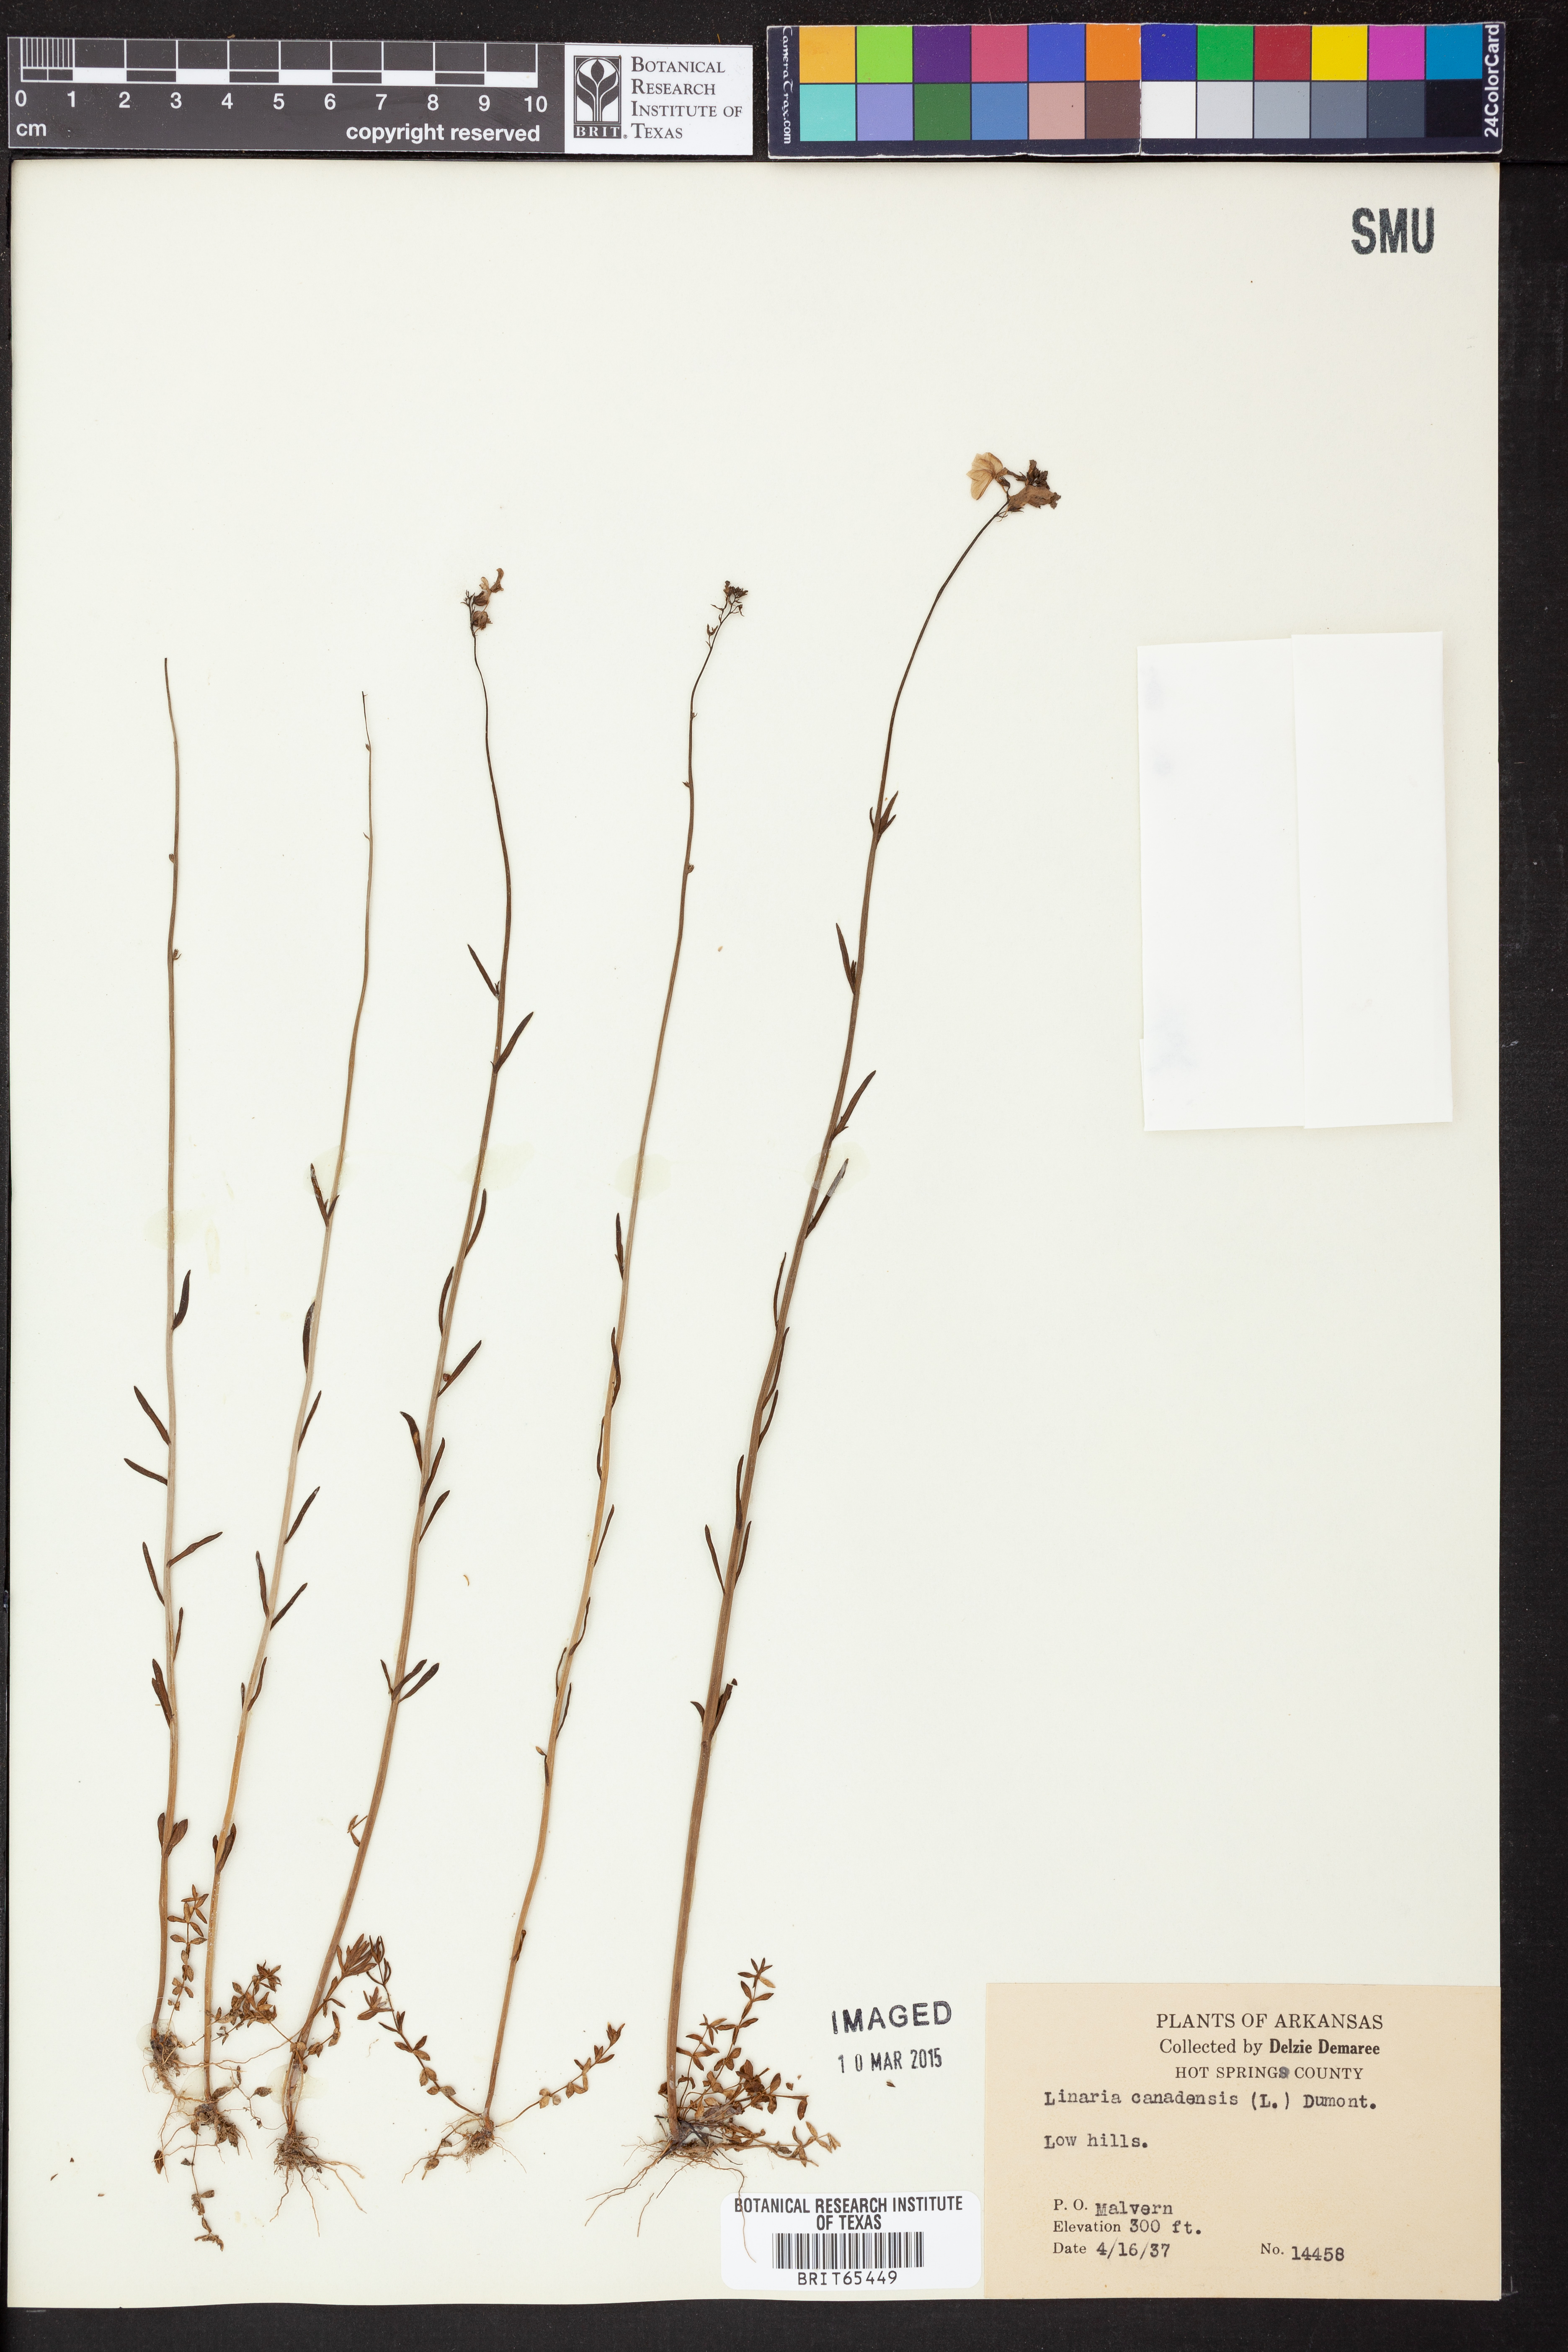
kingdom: Plantae
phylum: Tracheophyta
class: Magnoliopsida
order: Lamiales
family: Plantaginaceae
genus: Nuttallanthus
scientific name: Nuttallanthus canadensis
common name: Blue toadflax
